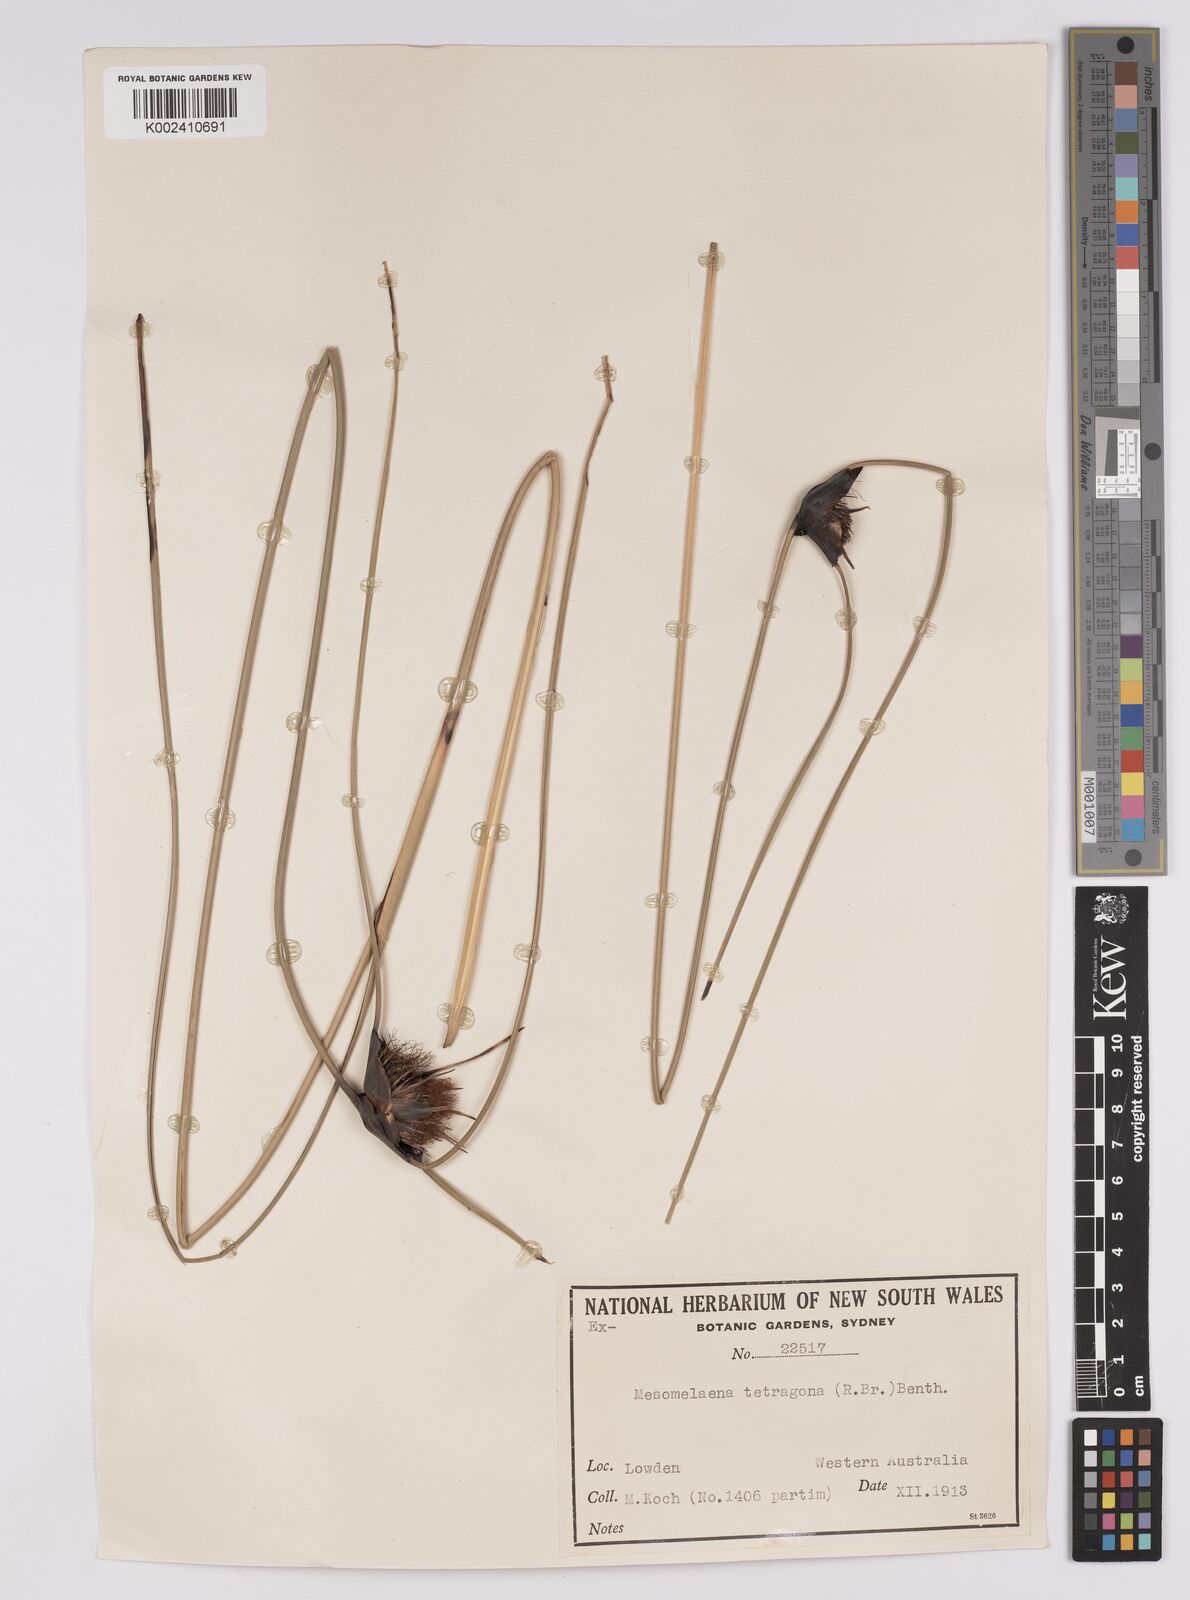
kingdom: Plantae
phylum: Tracheophyta
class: Liliopsida
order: Poales
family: Cyperaceae
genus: Mesomelaena
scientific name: Mesomelaena tetragona
